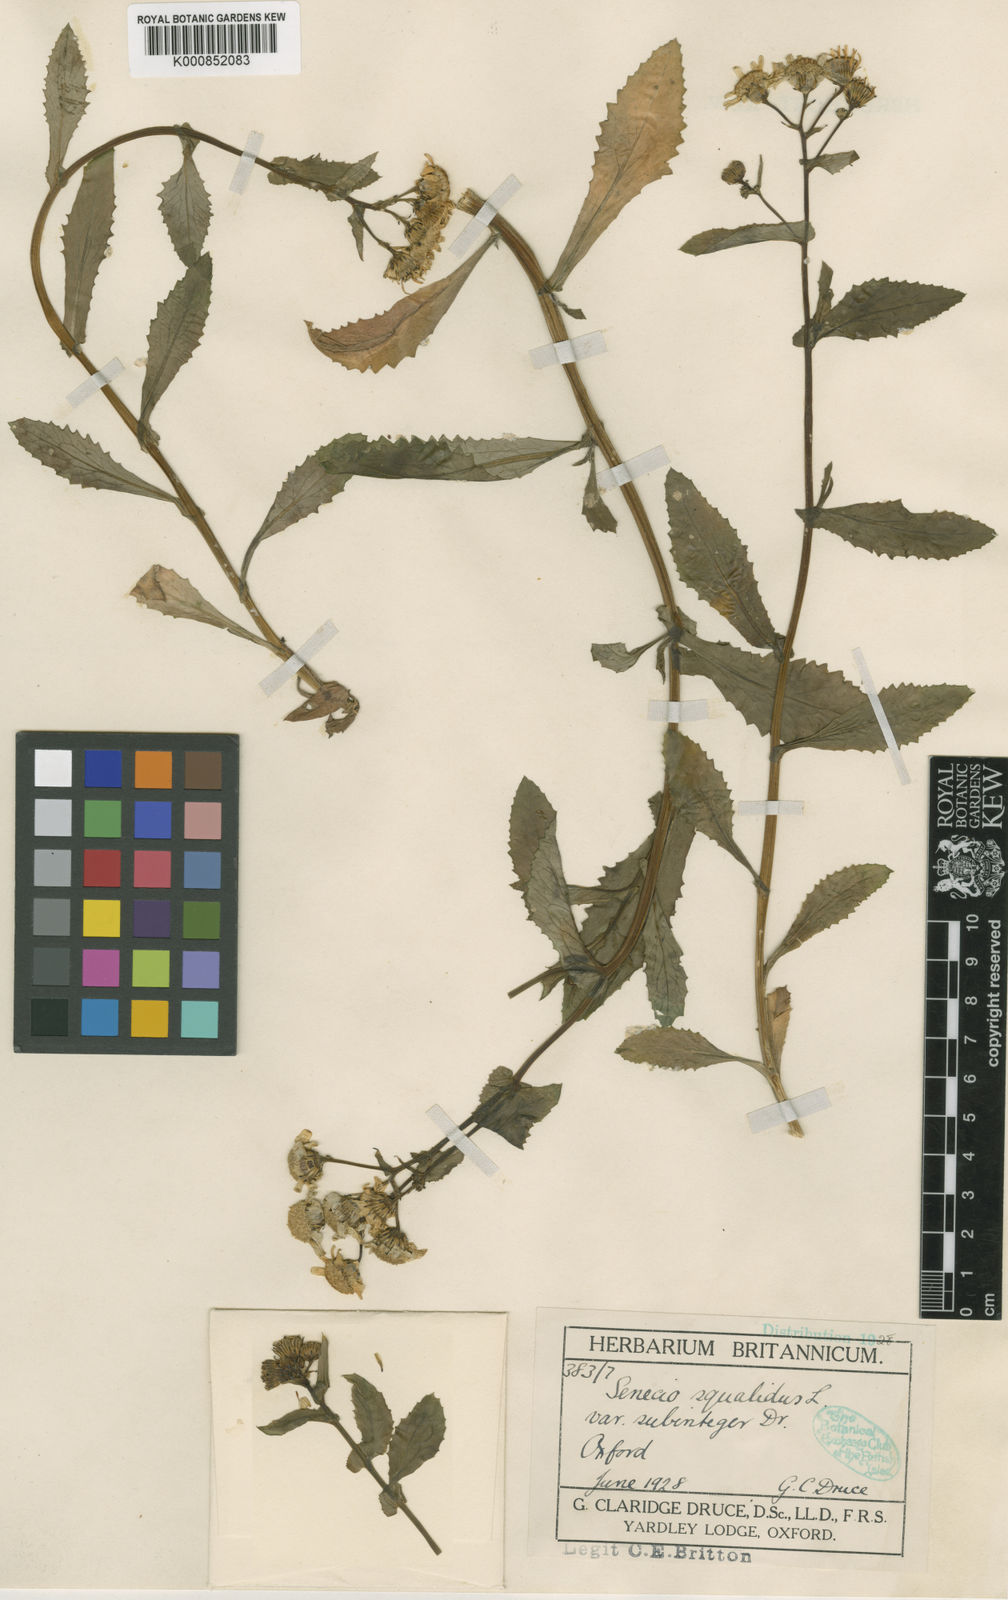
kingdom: Plantae
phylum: Tracheophyta
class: Magnoliopsida
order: Asterales
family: Asteraceae
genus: Senecio
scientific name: Senecio squalidus
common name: Oxford ragwort
